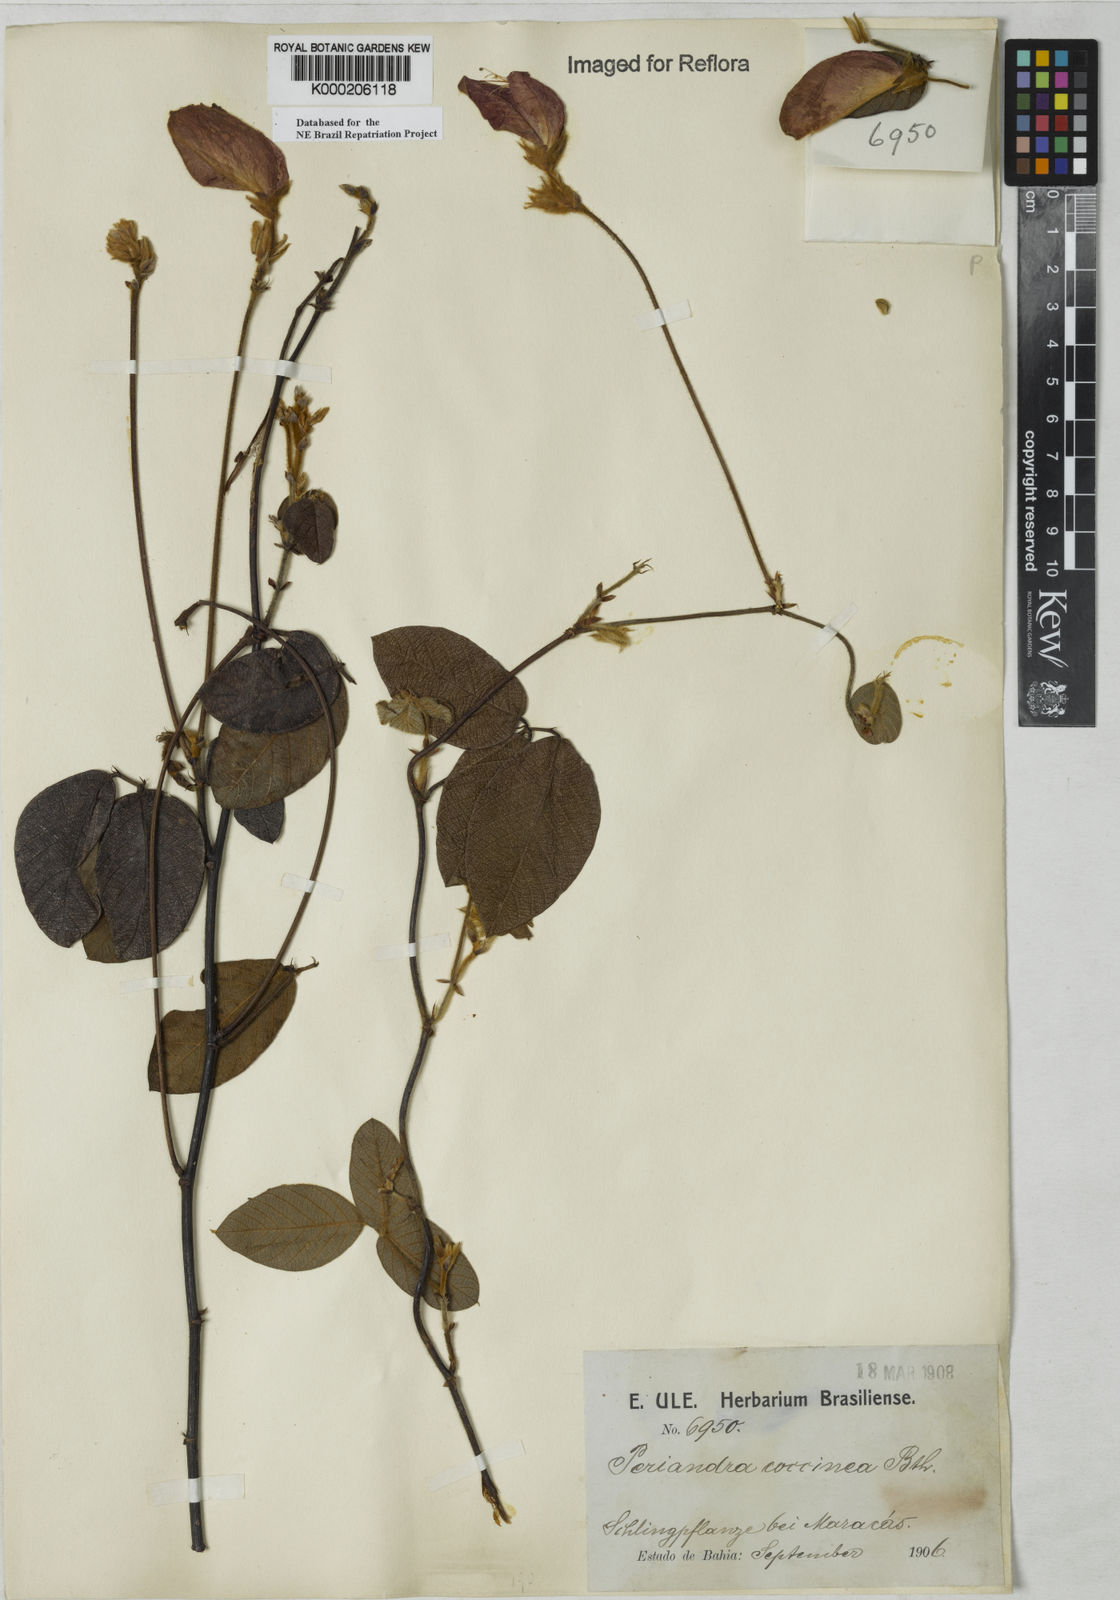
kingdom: Plantae
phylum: Tracheophyta
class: Magnoliopsida
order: Fabales
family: Fabaceae
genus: Periandra
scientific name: Periandra coccinea
